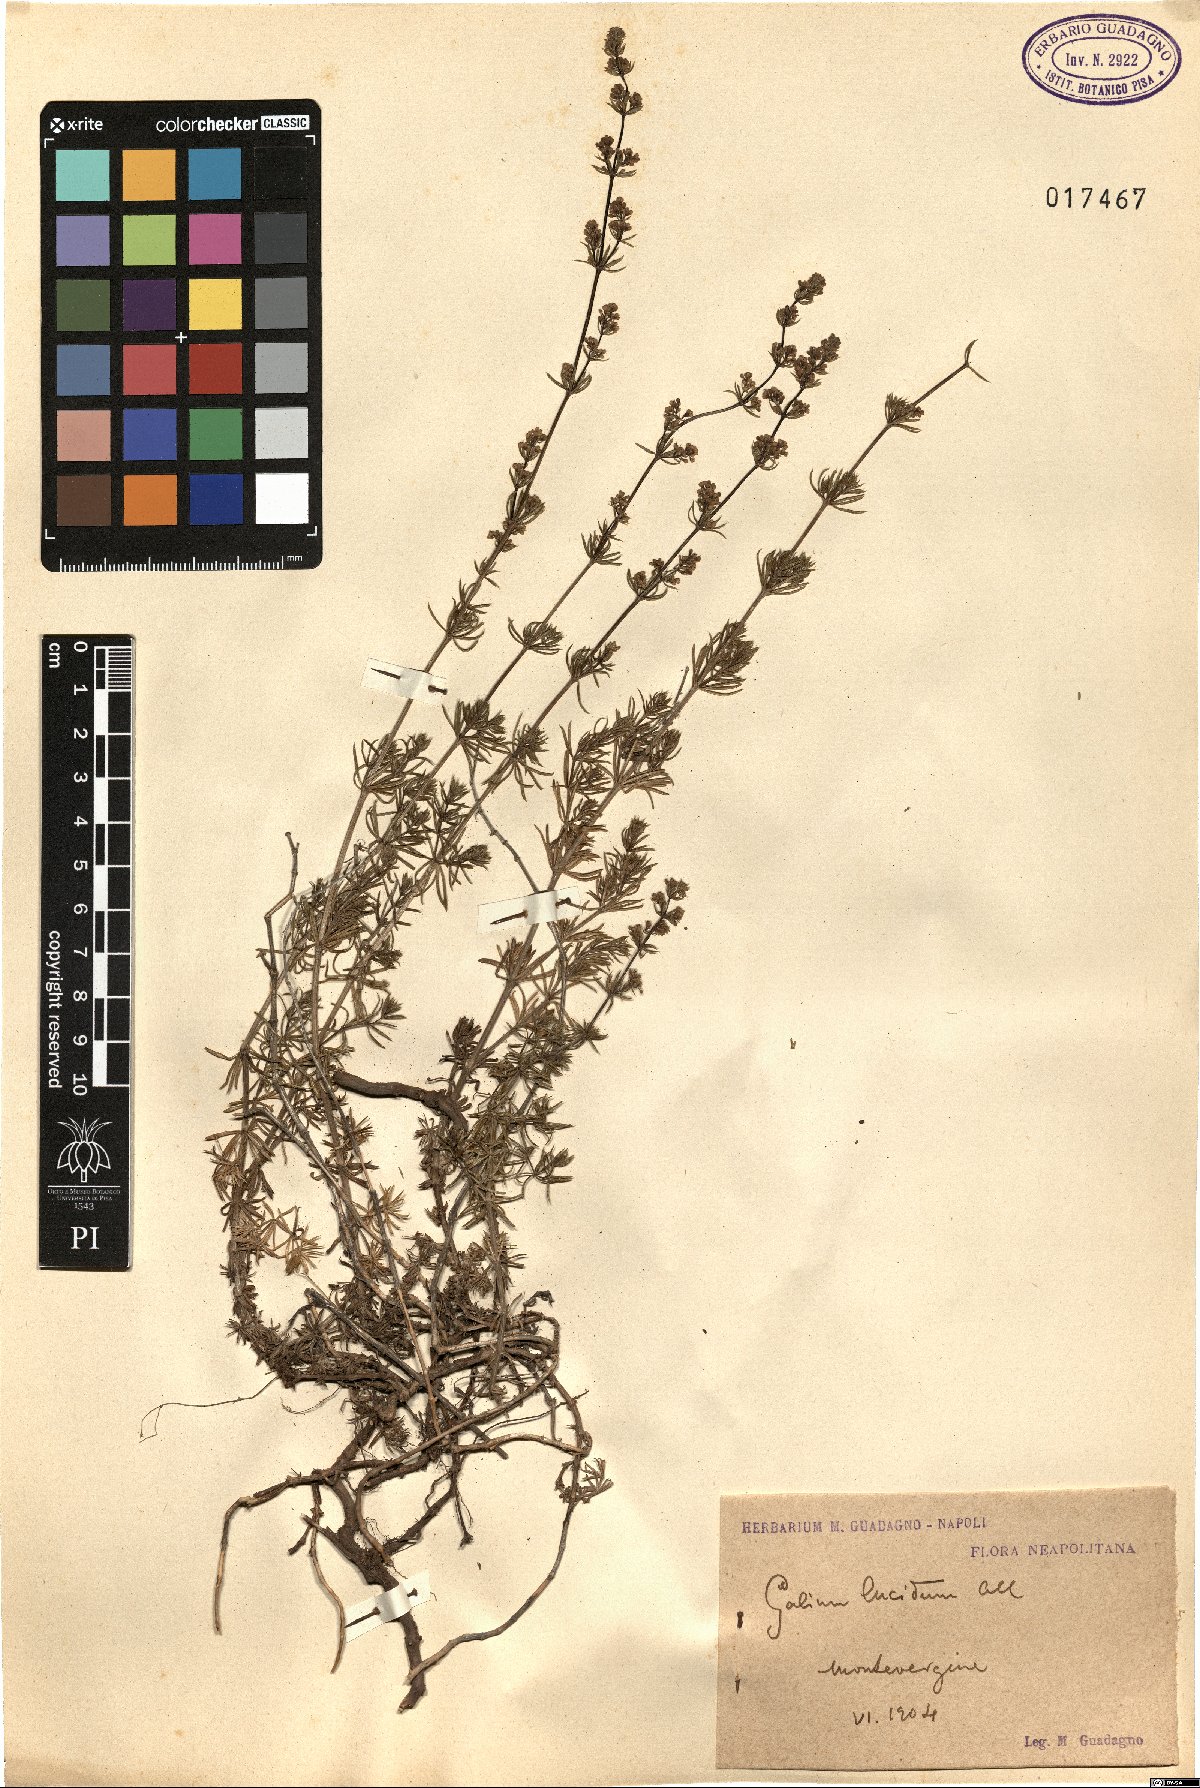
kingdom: Plantae
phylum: Tracheophyta
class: Magnoliopsida
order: Gentianales
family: Rubiaceae
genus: Galium
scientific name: Galium lucidum
